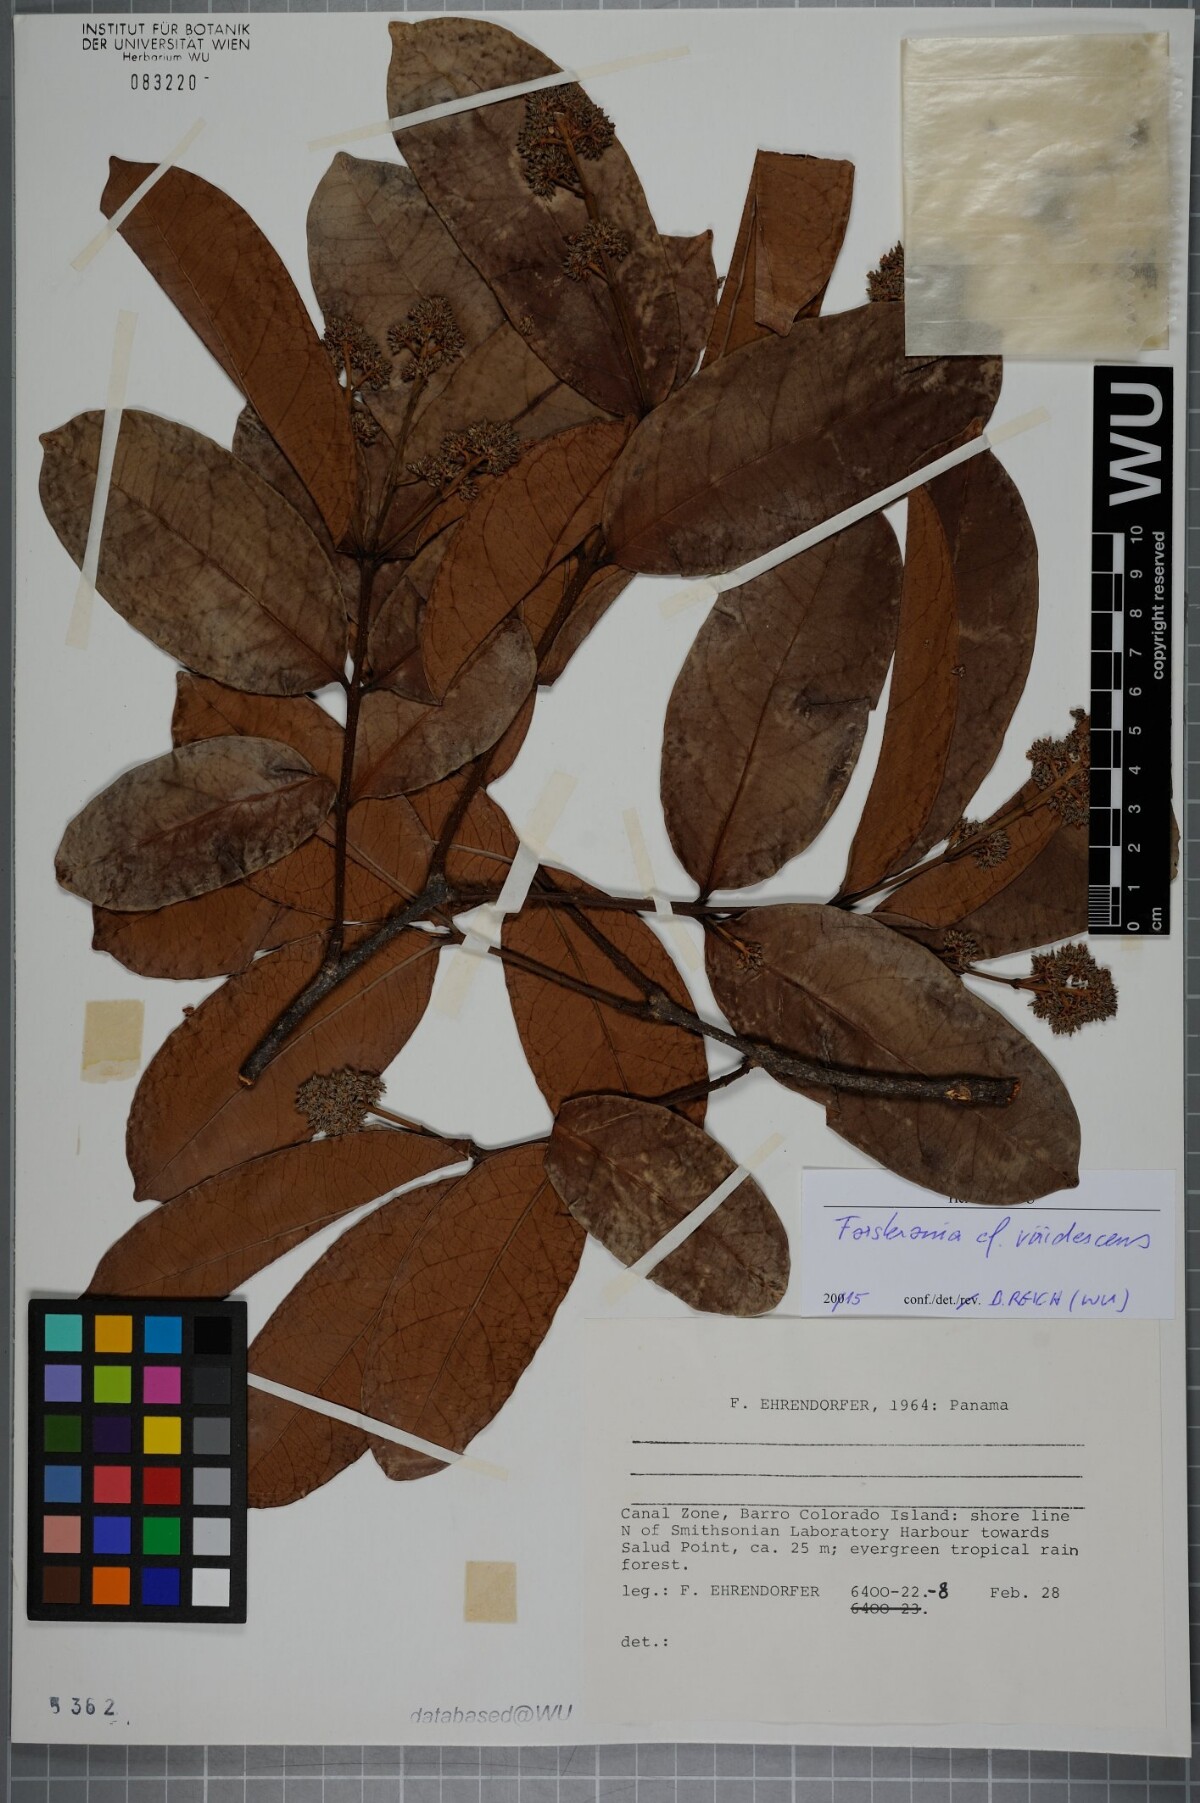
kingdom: Plantae
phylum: Tracheophyta
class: Magnoliopsida
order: Gentianales
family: Apocynaceae
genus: Forsteronia
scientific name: Forsteronia acouci
